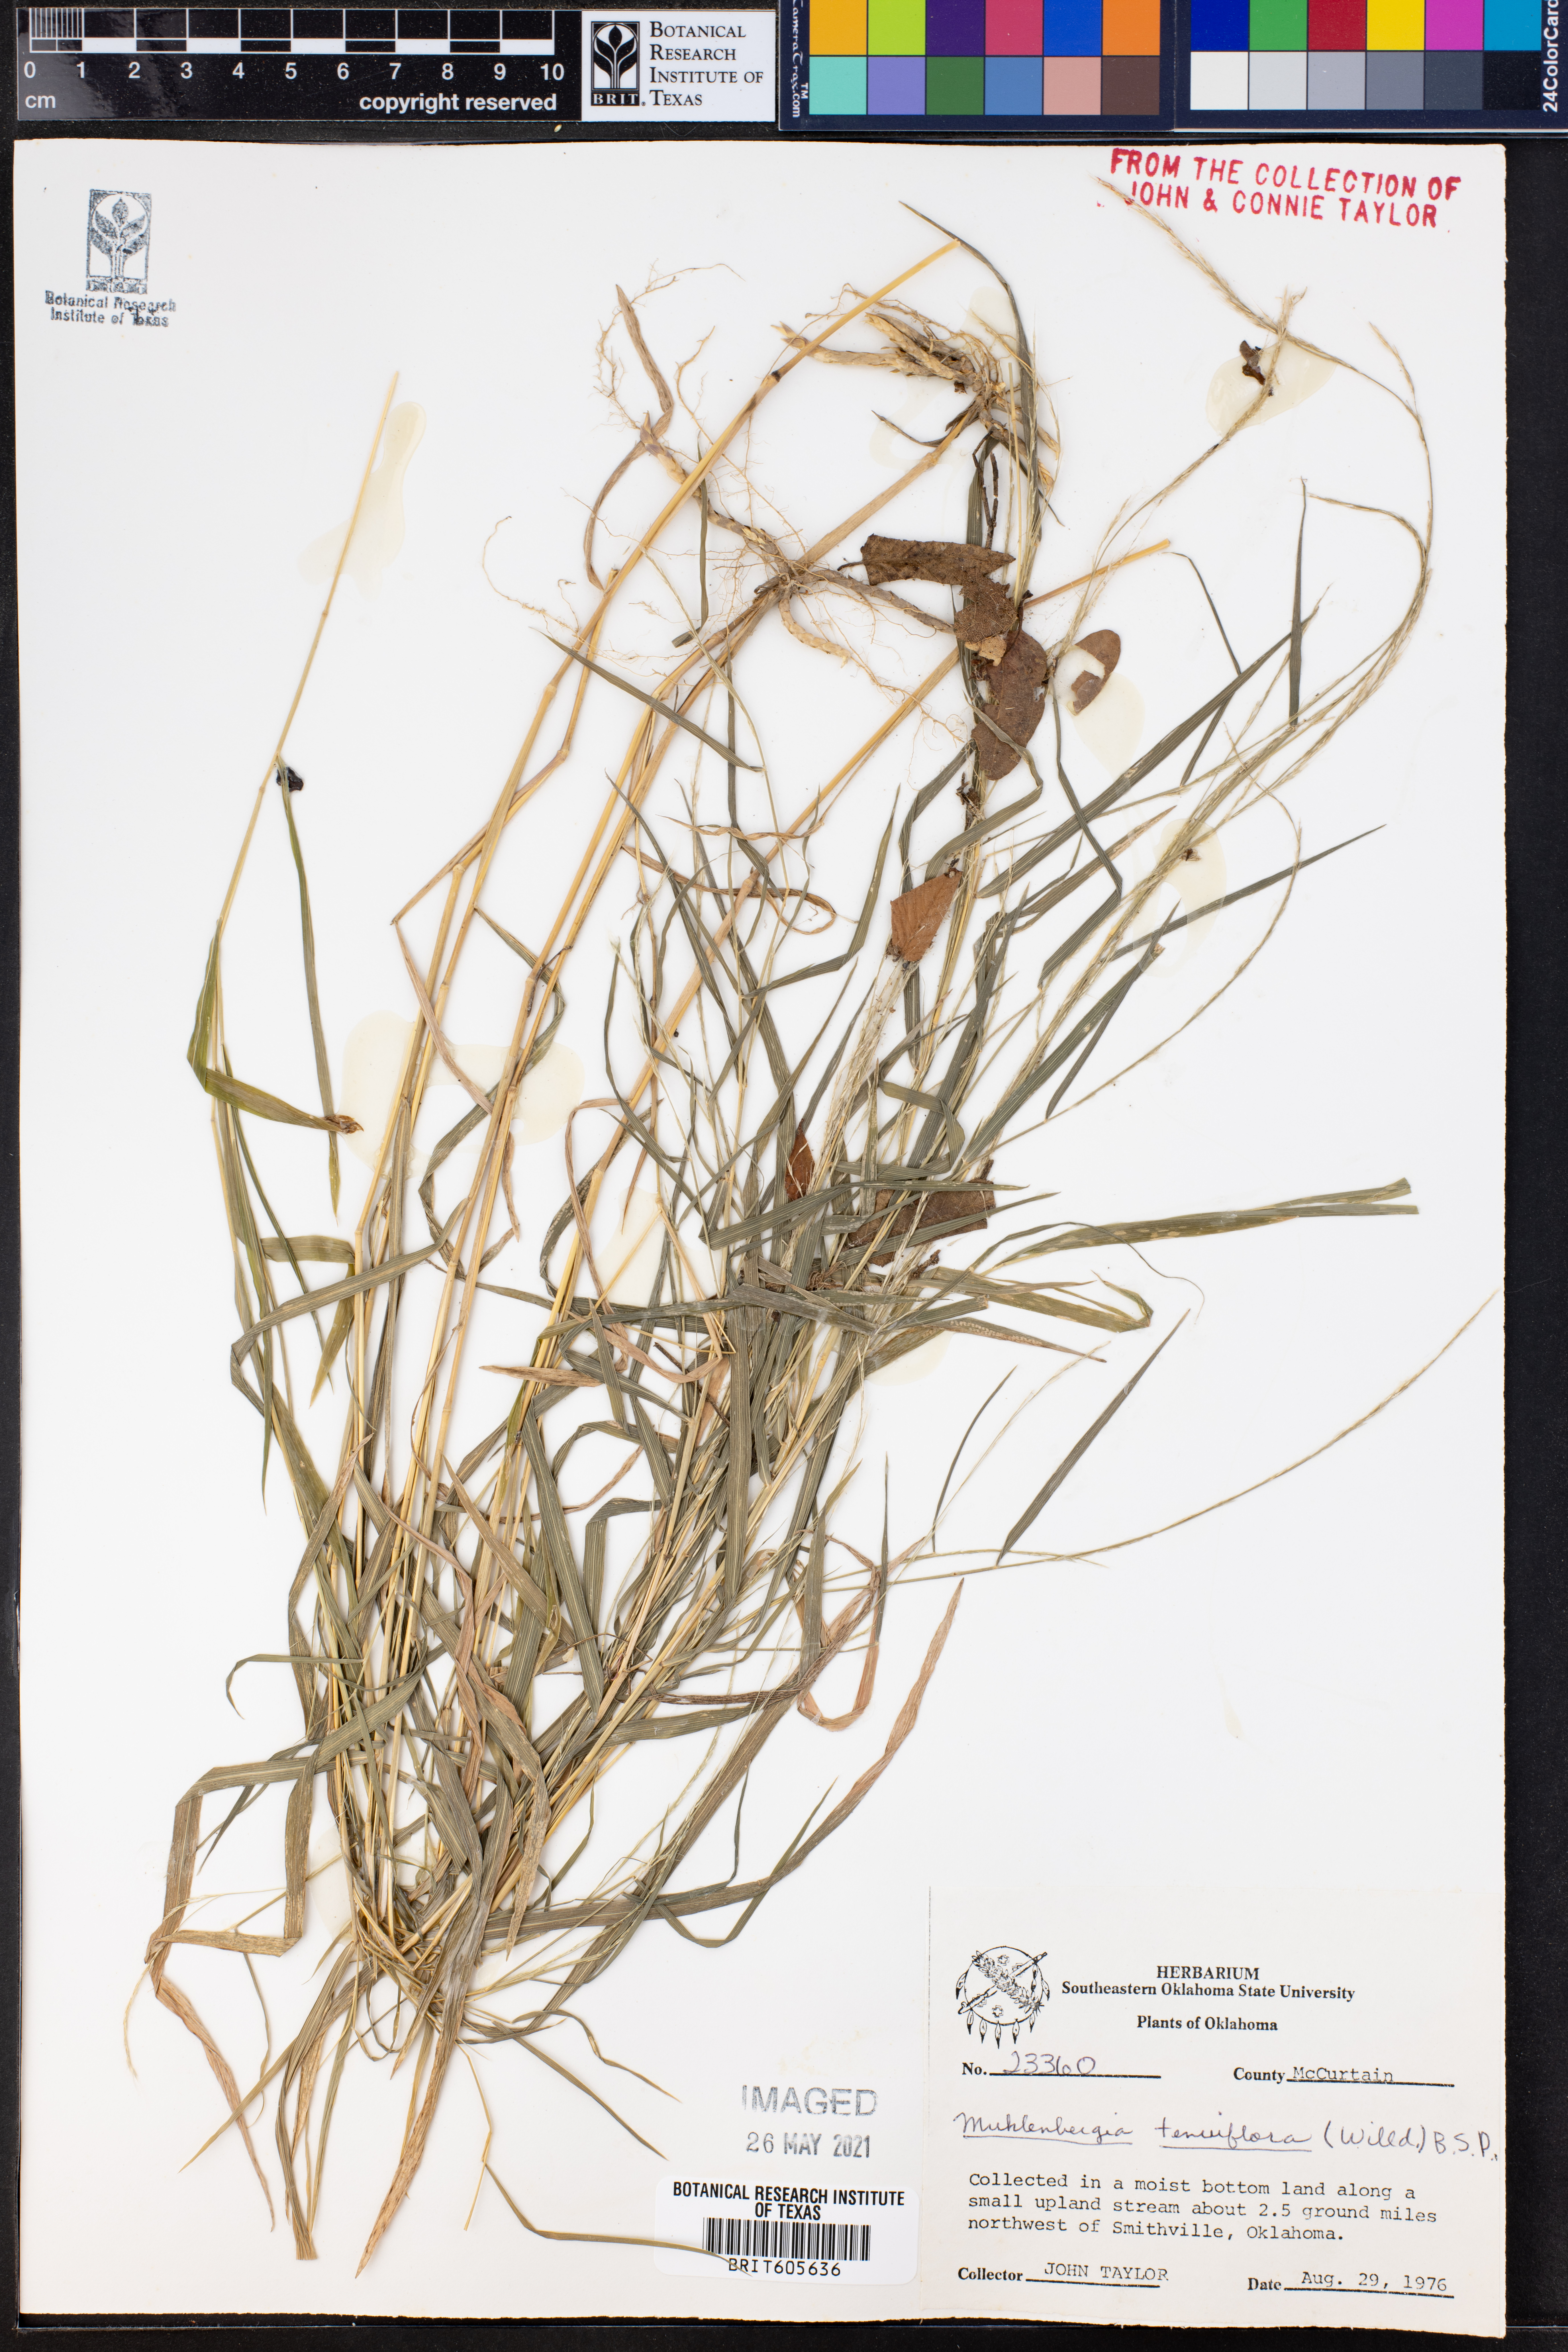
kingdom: Plantae
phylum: Tracheophyta
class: Liliopsida
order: Poales
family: Poaceae
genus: Muhlenbergia
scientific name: Muhlenbergia tenuiflora
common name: Slender muhly
